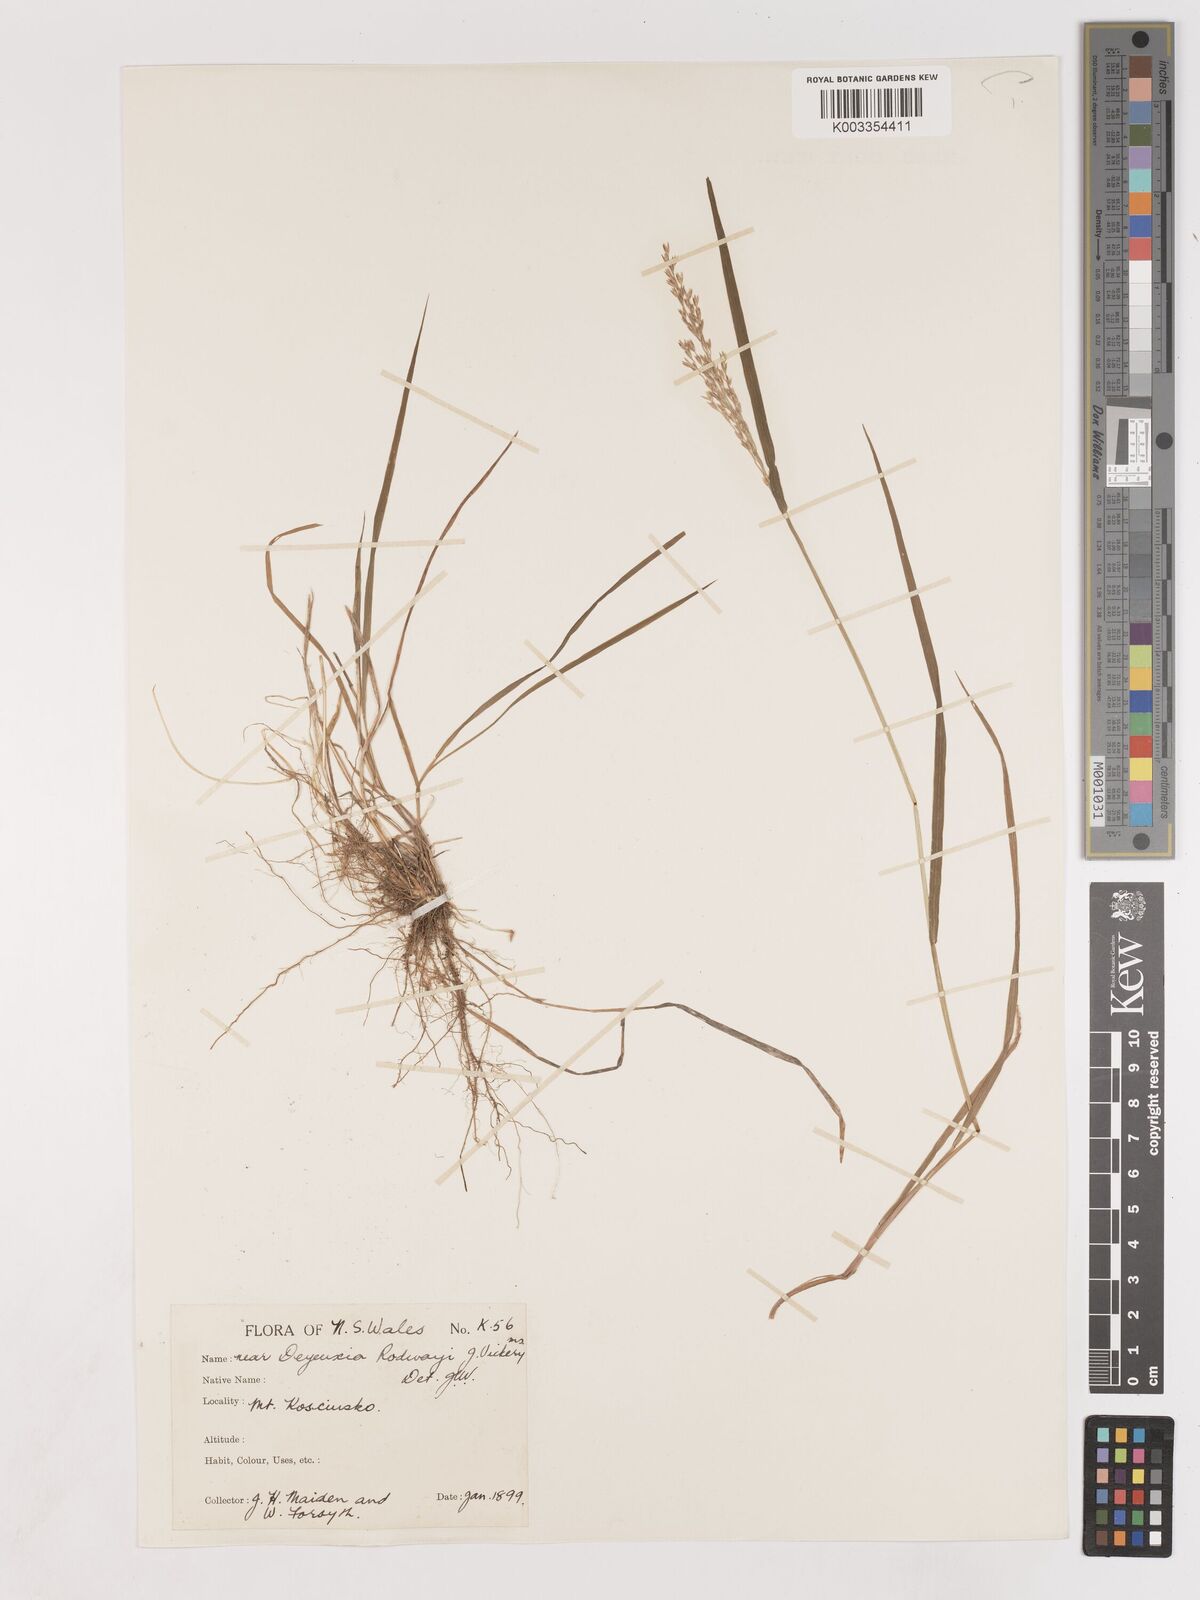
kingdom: Plantae
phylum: Tracheophyta
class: Liliopsida
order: Poales
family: Poaceae
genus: Calamagrostis
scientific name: Calamagrostis
